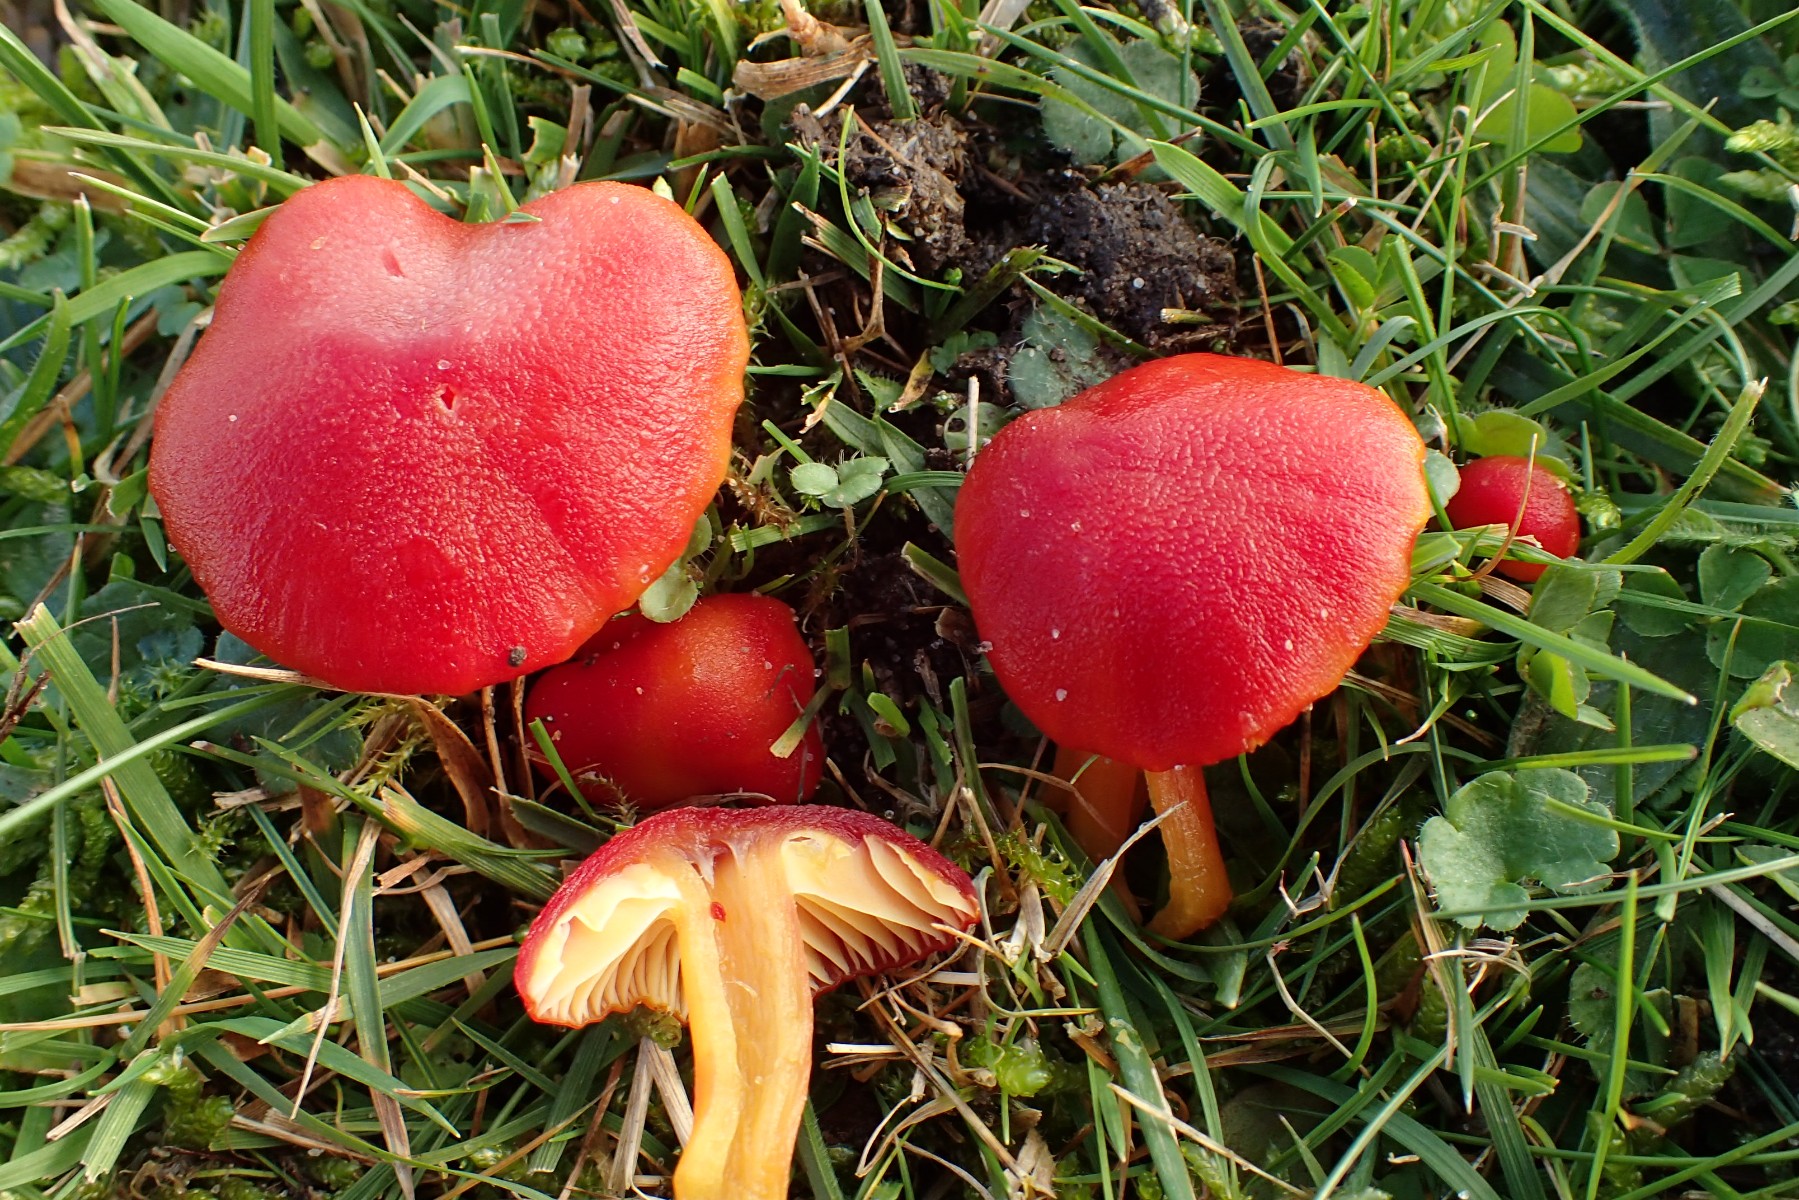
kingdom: Fungi
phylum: Basidiomycota
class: Agaricomycetes
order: Agaricales
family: Hygrophoraceae
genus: Hygrocybe
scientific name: Hygrocybe coccinea
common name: cinnober-vokshat
